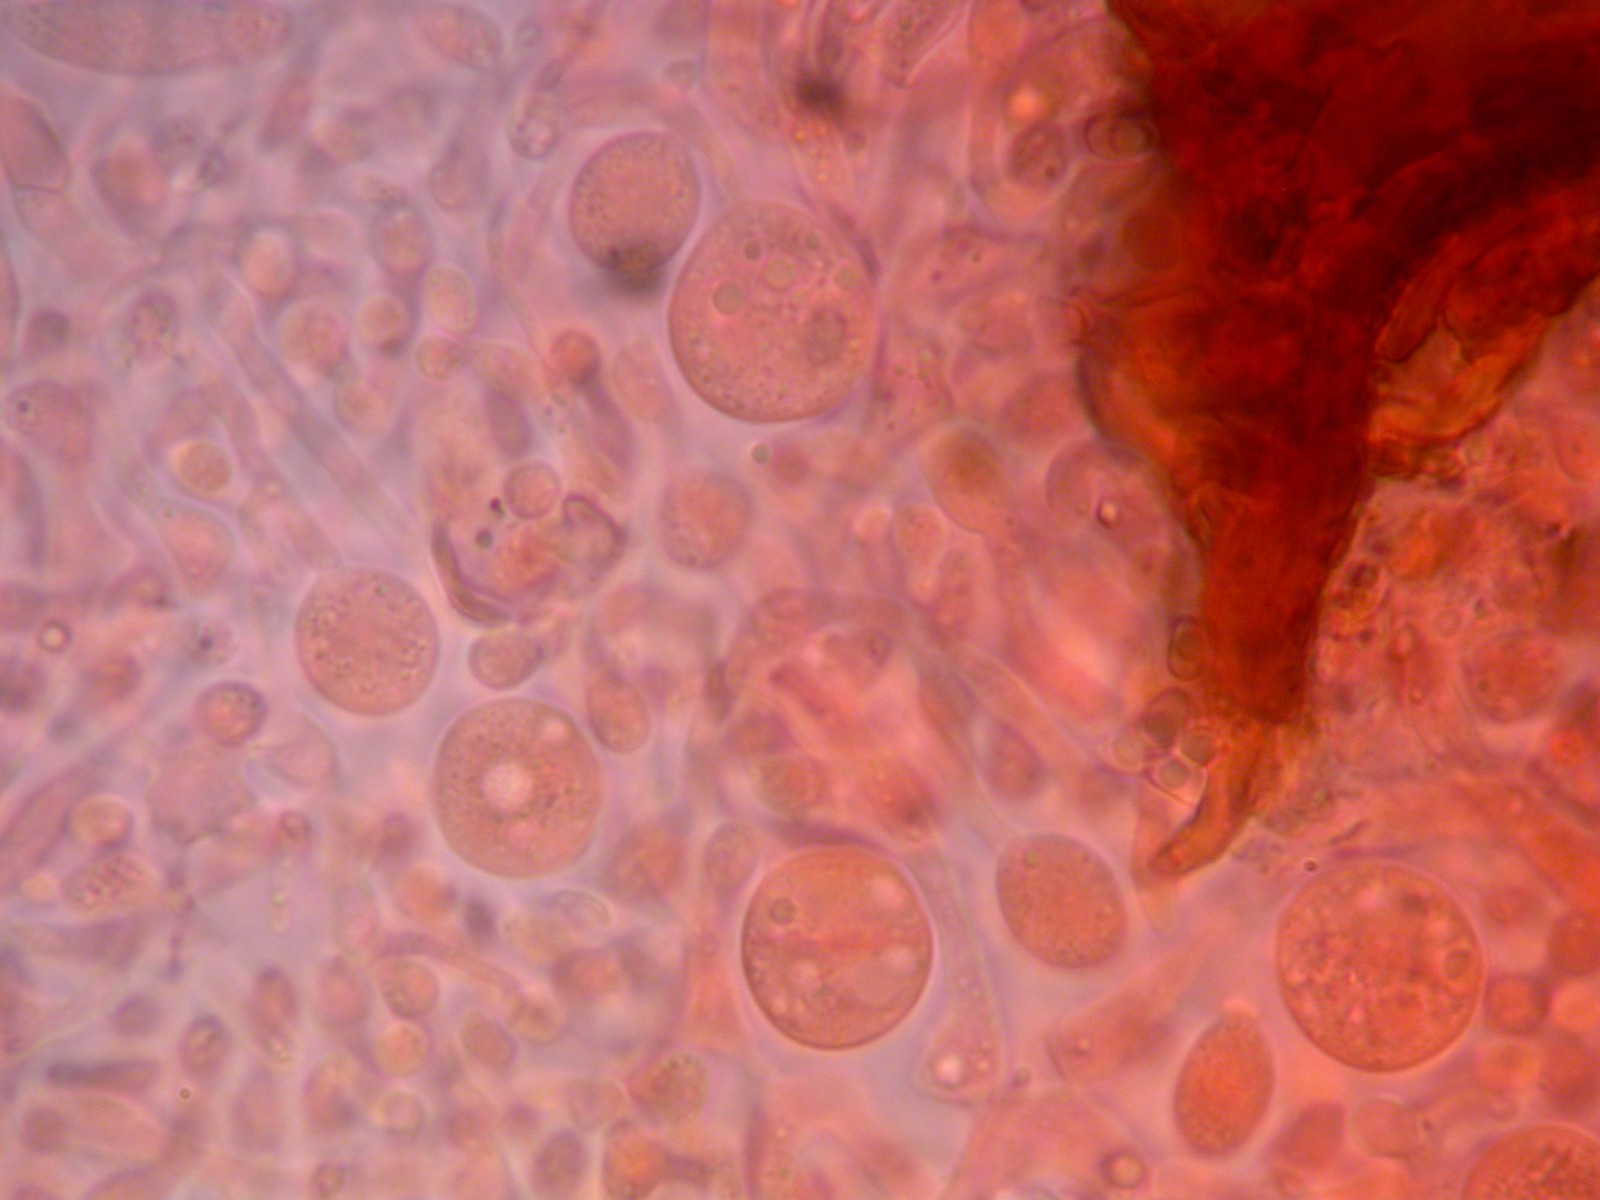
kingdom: Fungi
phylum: Basidiomycota
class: Tremellomycetes
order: Tremellales
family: Tremellaceae
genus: Phaeotremella
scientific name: Phaeotremella simplex
